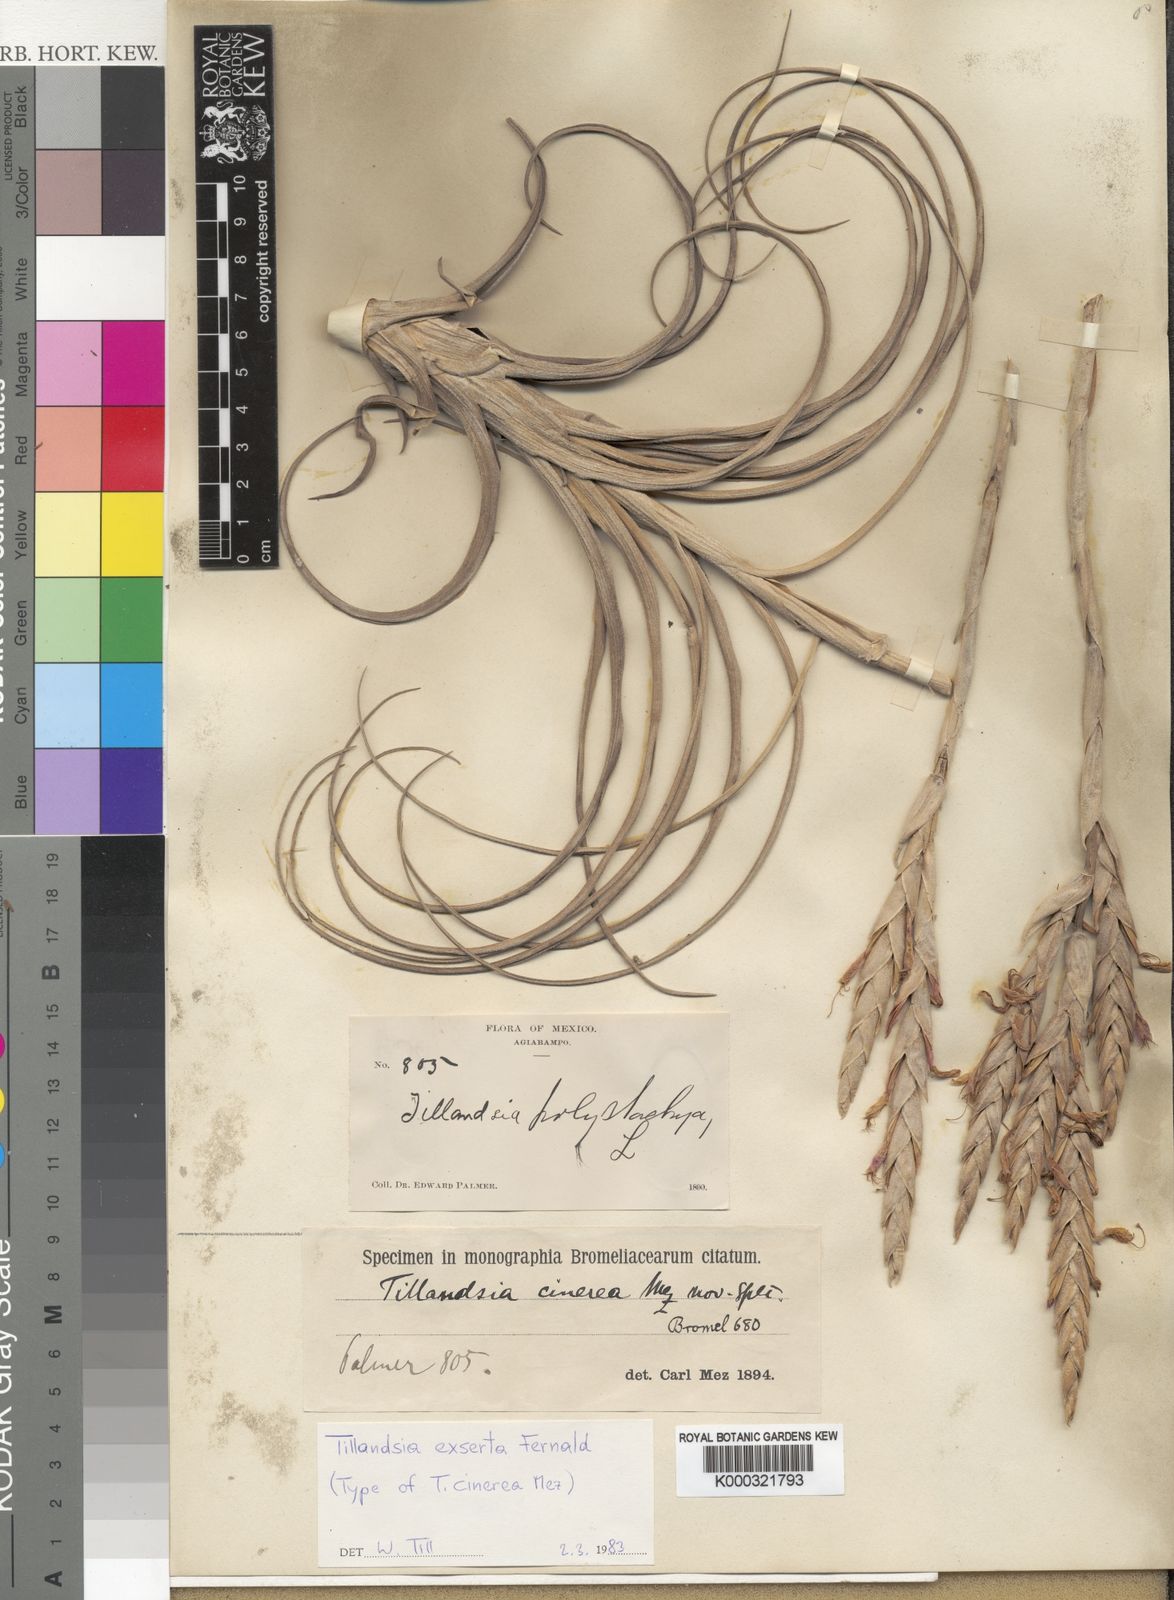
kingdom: Plantae
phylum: Tracheophyta
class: Liliopsida
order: Poales
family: Bromeliaceae
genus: Tillandsia
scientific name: Tillandsia exserta
